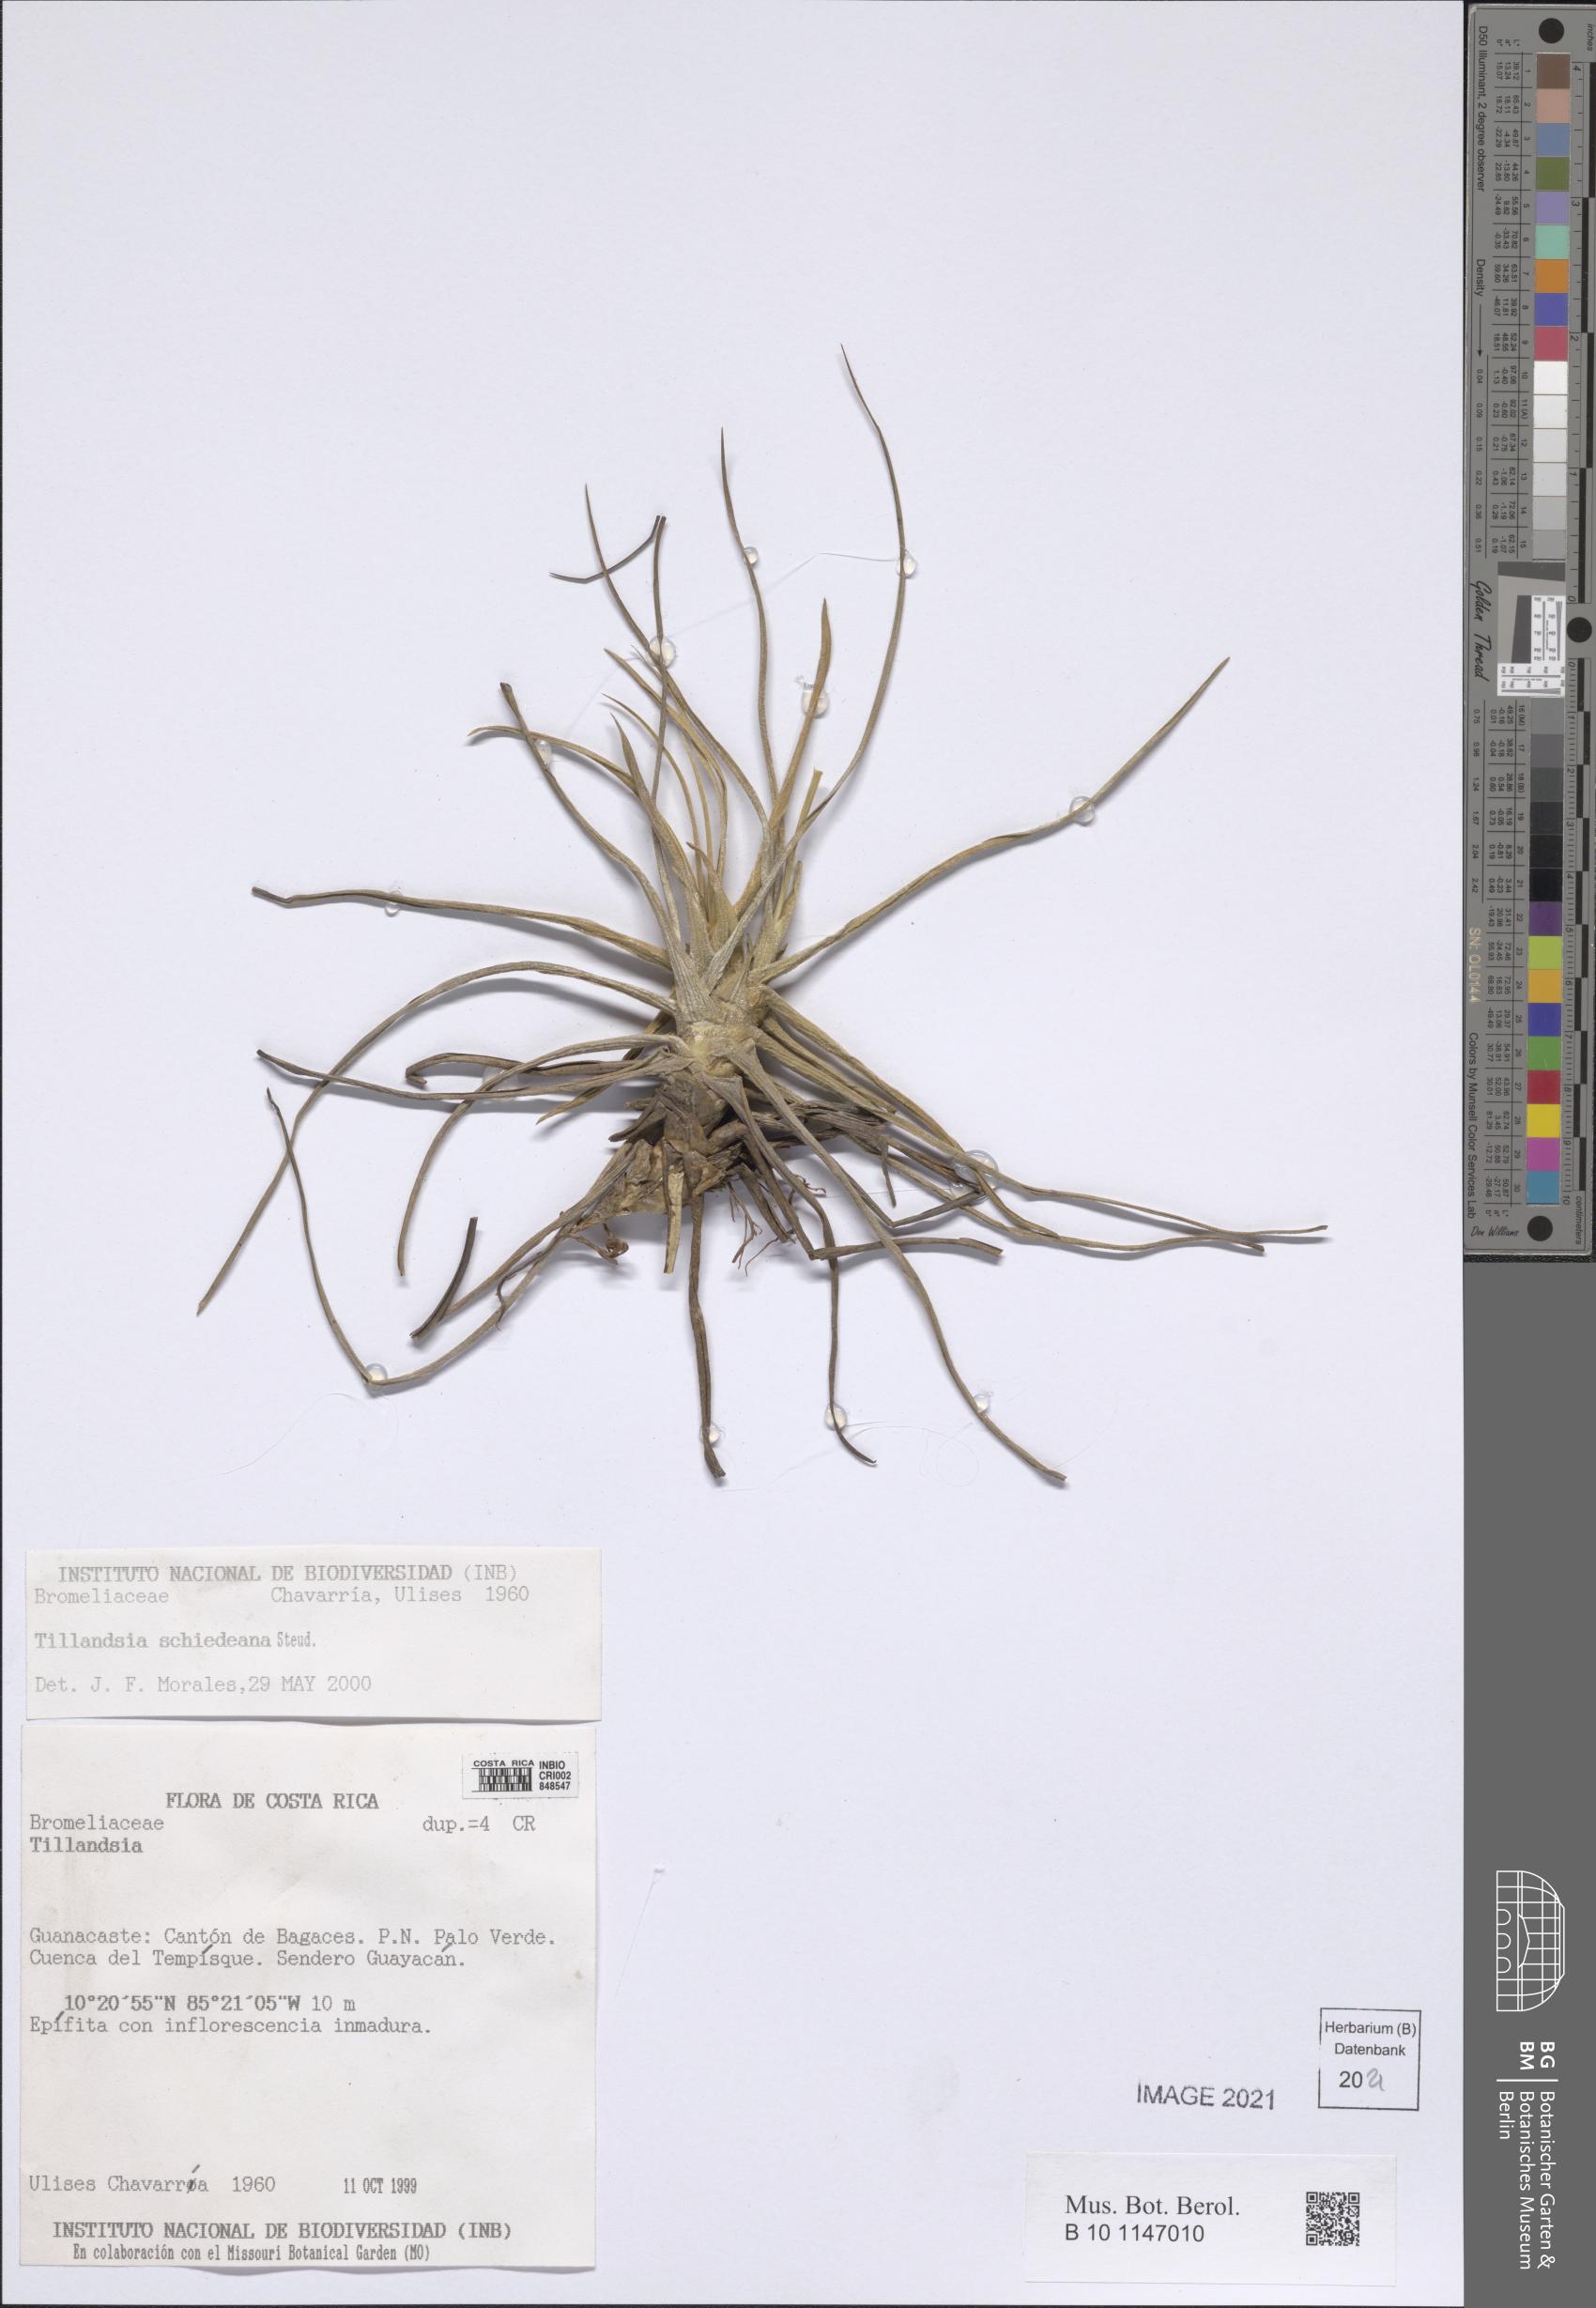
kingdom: Plantae
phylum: Tracheophyta
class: Liliopsida
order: Poales
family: Bromeliaceae
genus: Tillandsia
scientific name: Tillandsia schiedeana
